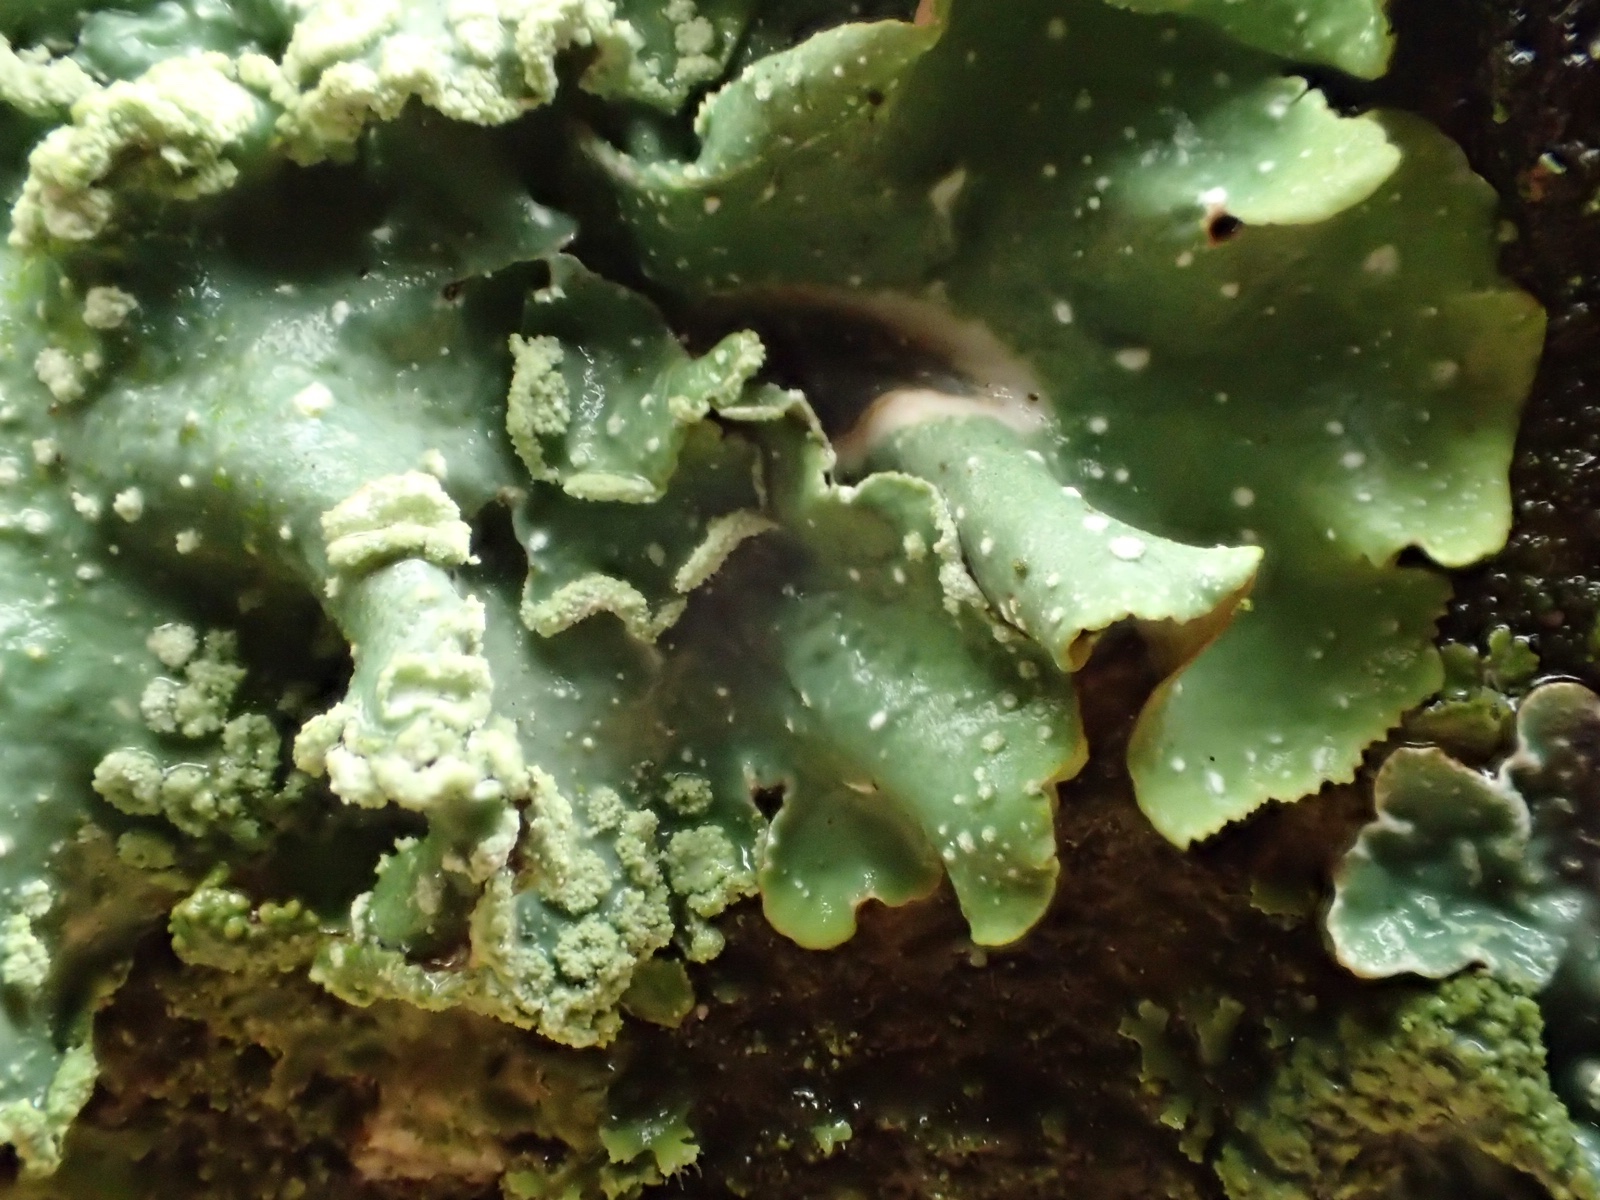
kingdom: Fungi
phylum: Ascomycota
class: Lecanoromycetes
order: Lecanorales
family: Parmeliaceae
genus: Punctelia
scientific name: Punctelia jeckeri
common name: randstøvet skållav
